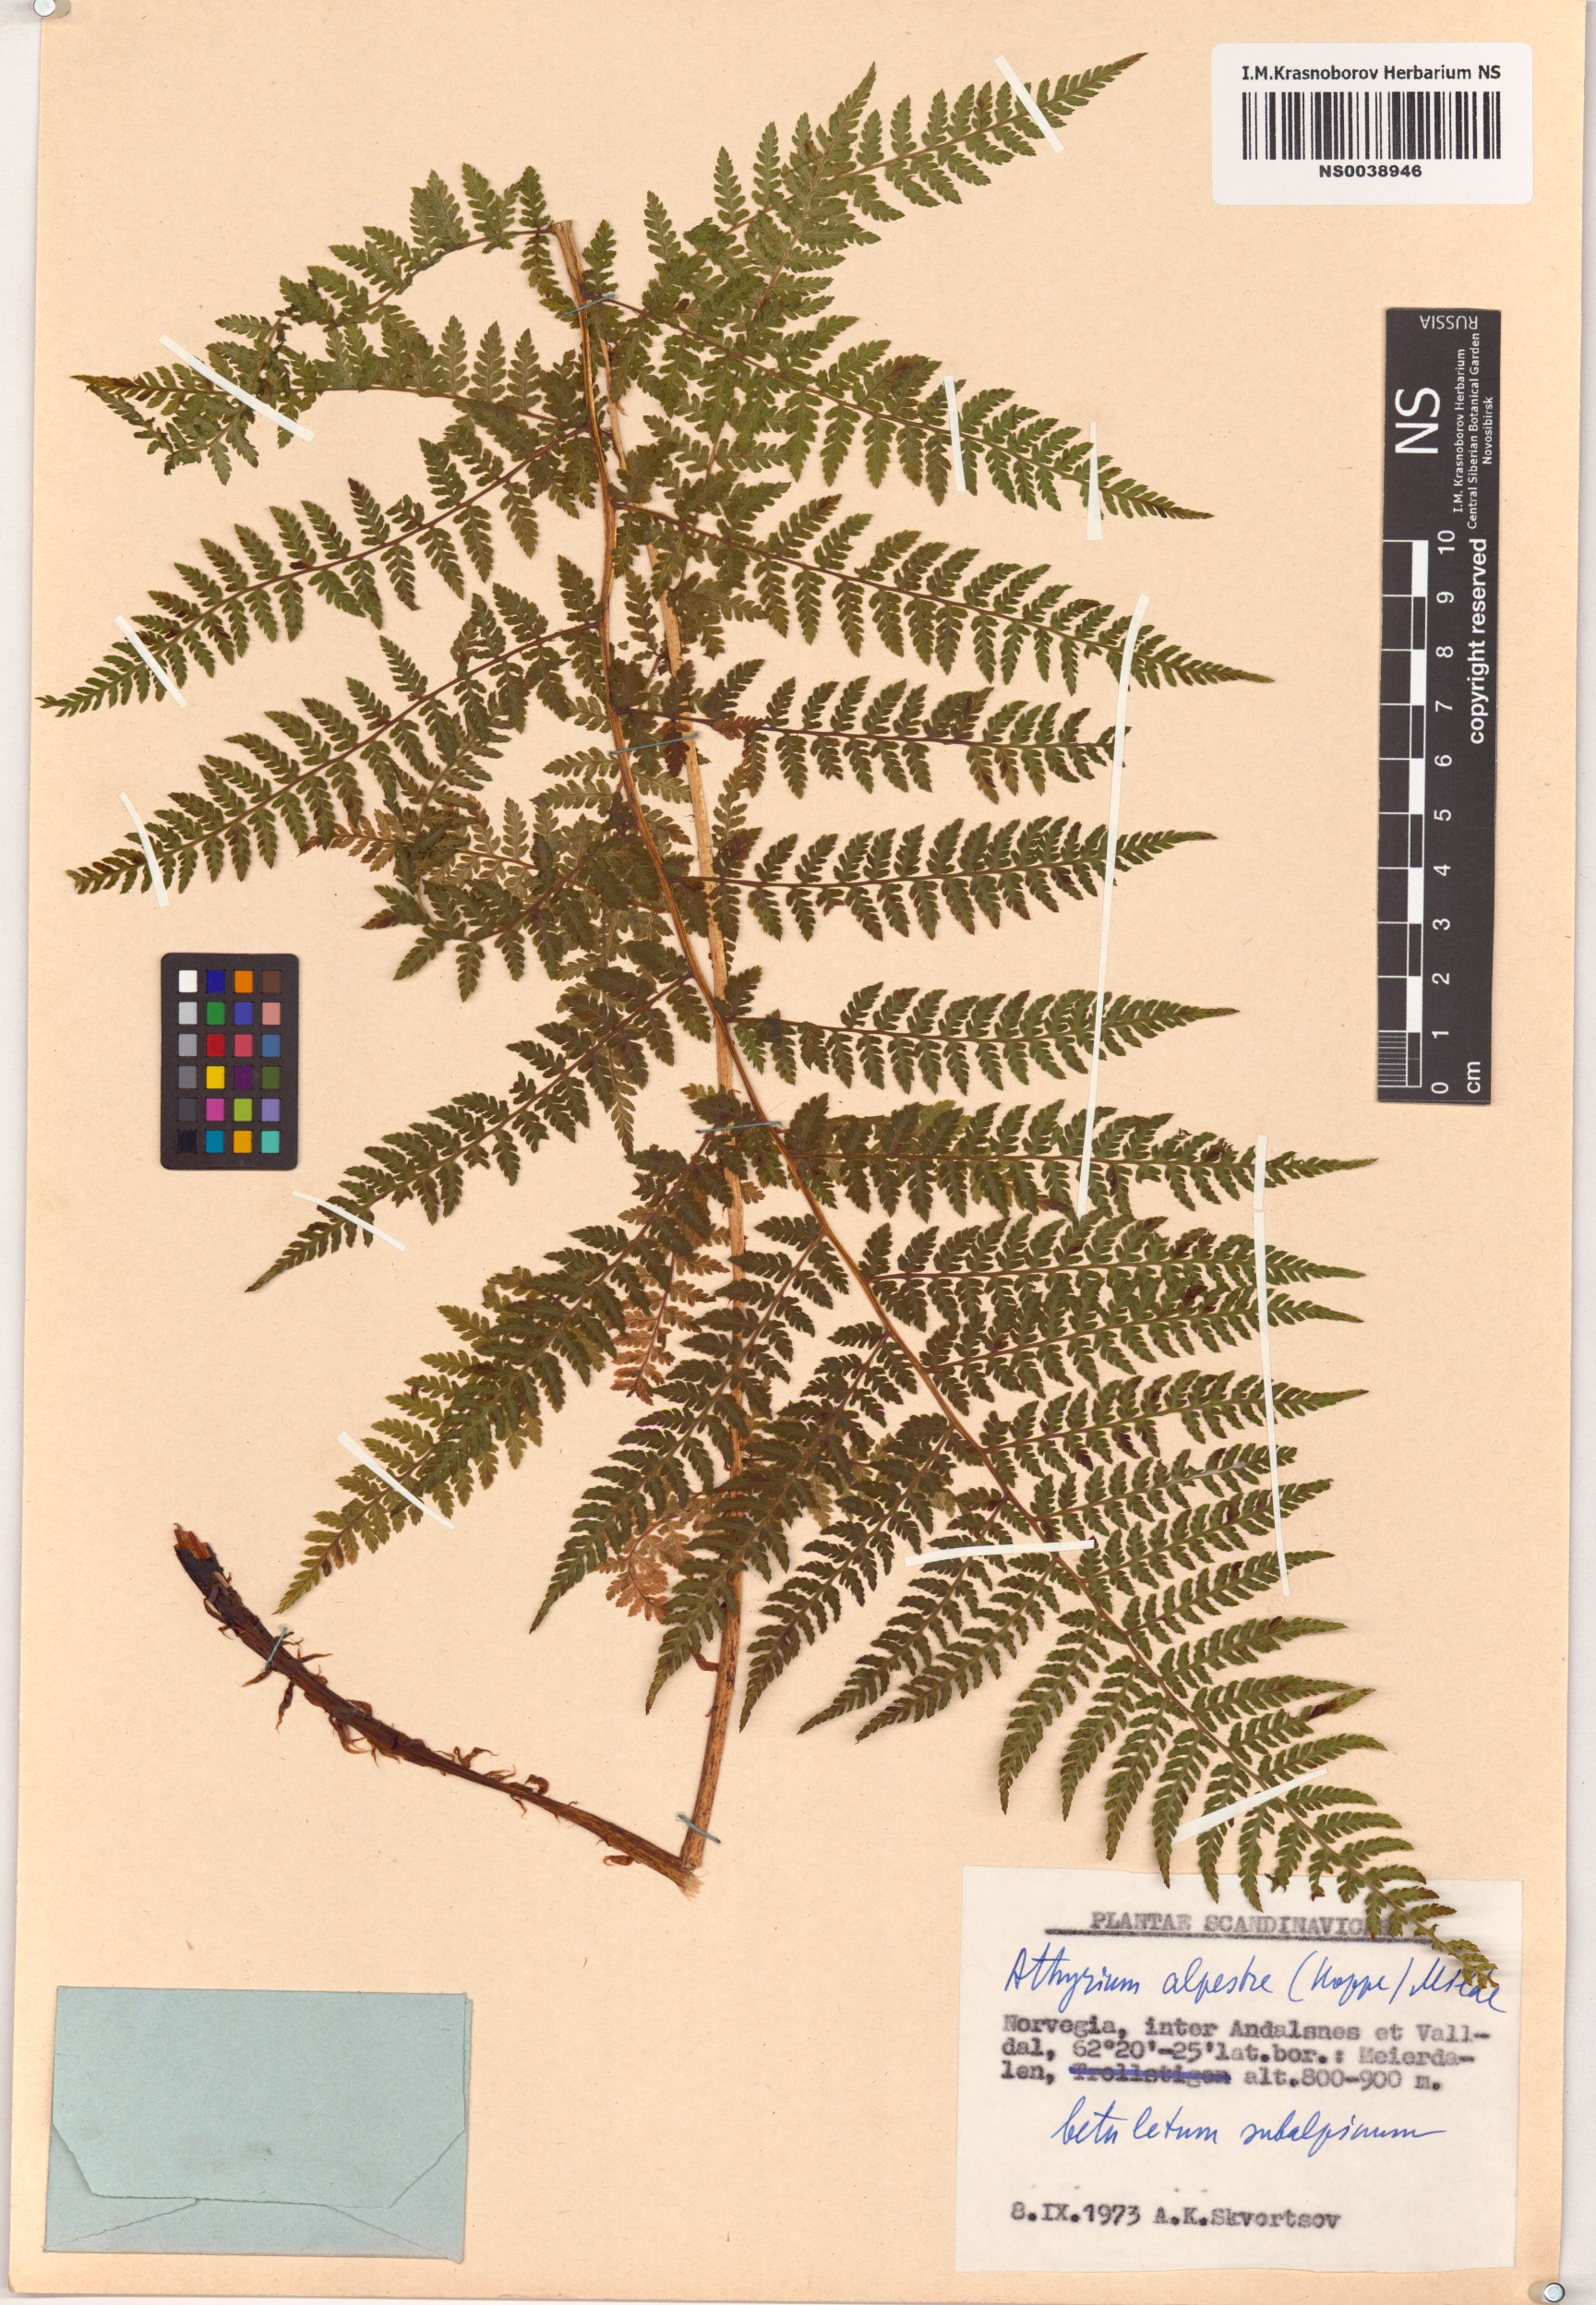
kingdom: Plantae
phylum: Tracheophyta
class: Polypodiopsida
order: Polypodiales
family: Athyriaceae
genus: Pseudathyrium
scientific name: Pseudathyrium alpestre
